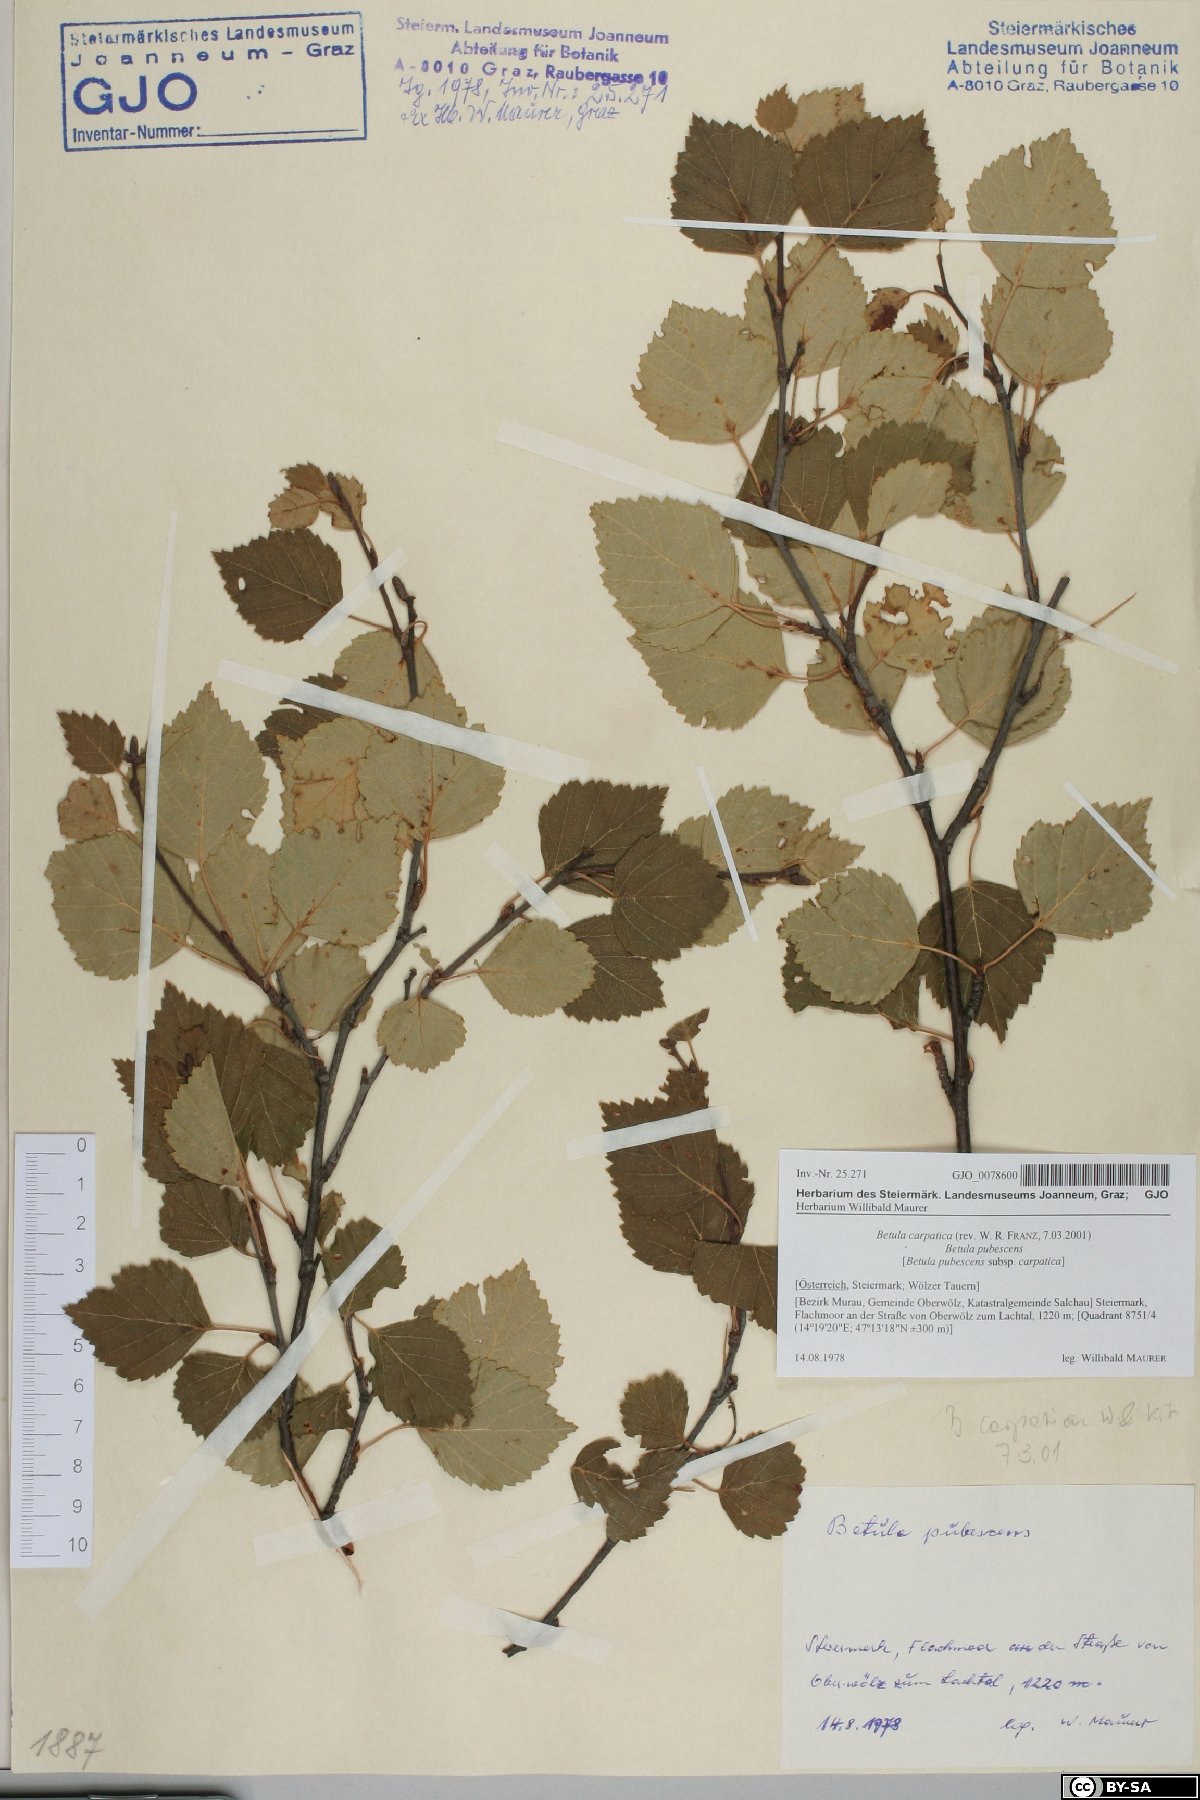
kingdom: Plantae
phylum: Tracheophyta
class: Magnoliopsida
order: Fagales
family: Betulaceae
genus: Betula
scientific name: Betula pubescens
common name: Downy birch
